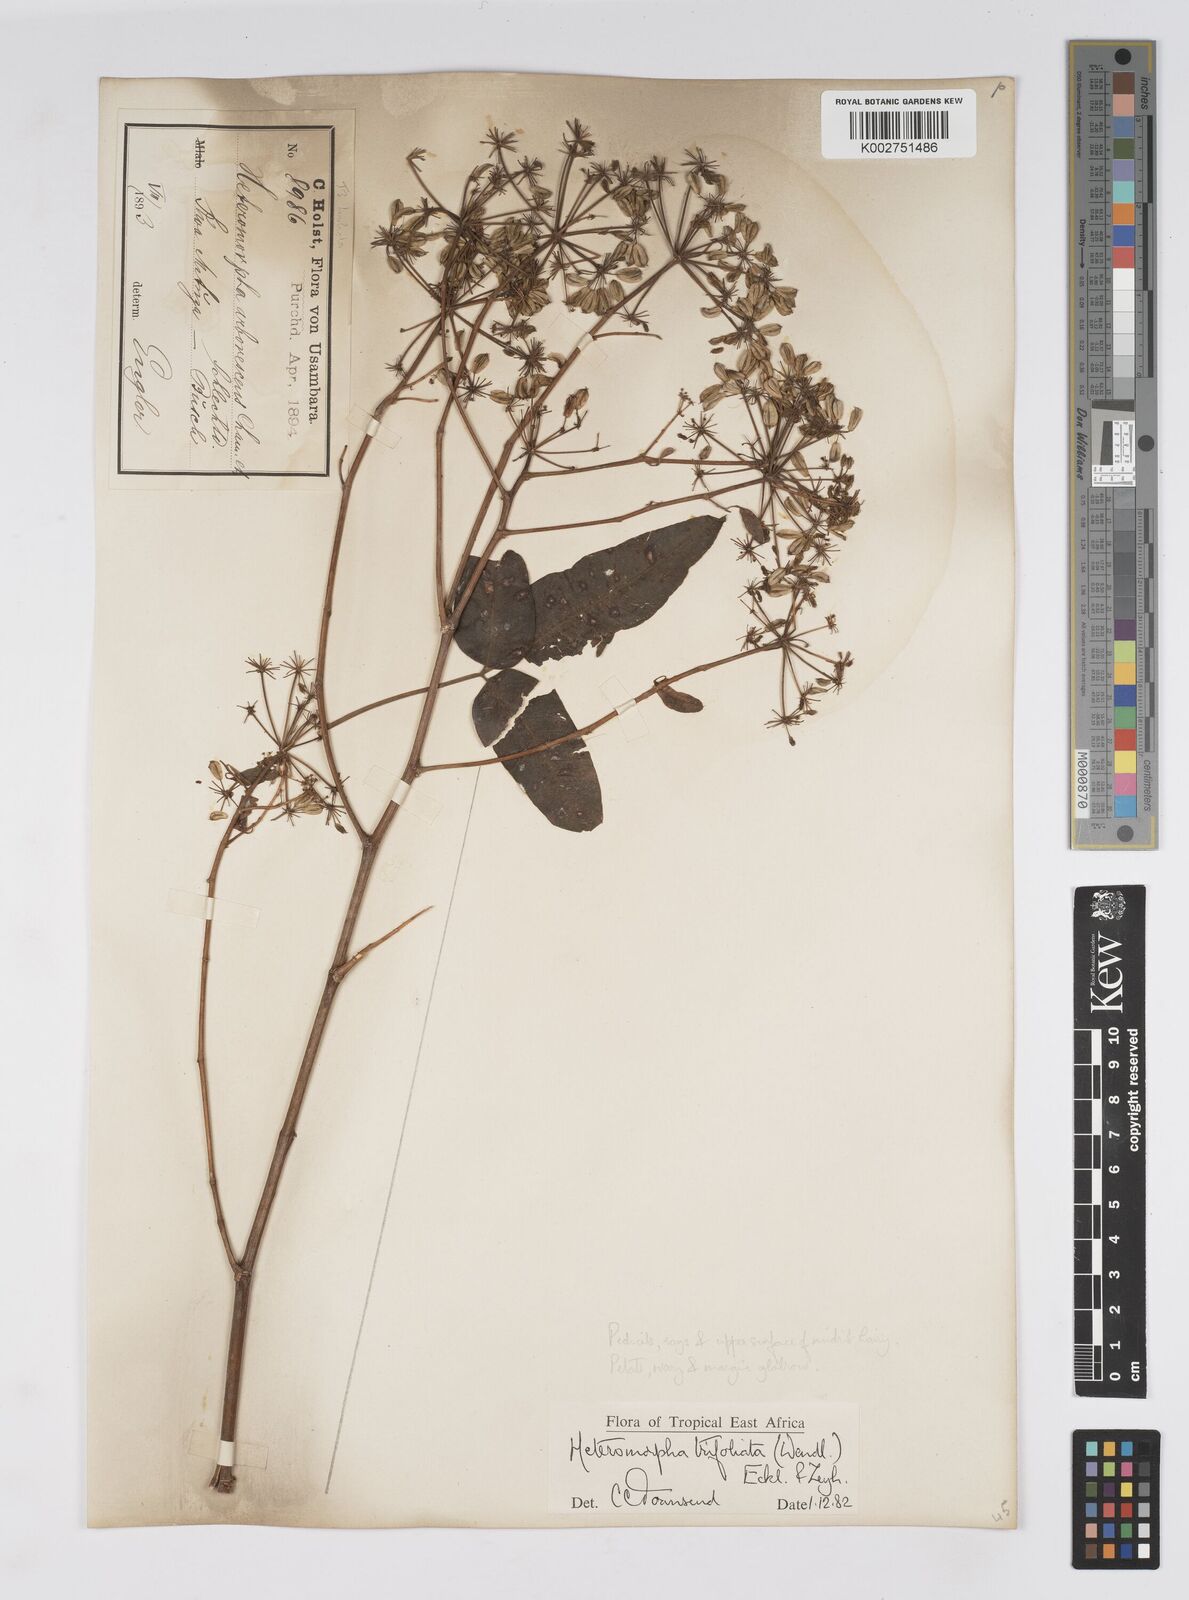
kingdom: Plantae
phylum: Tracheophyta
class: Magnoliopsida
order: Apiales
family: Apiaceae
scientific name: Apiaceae
